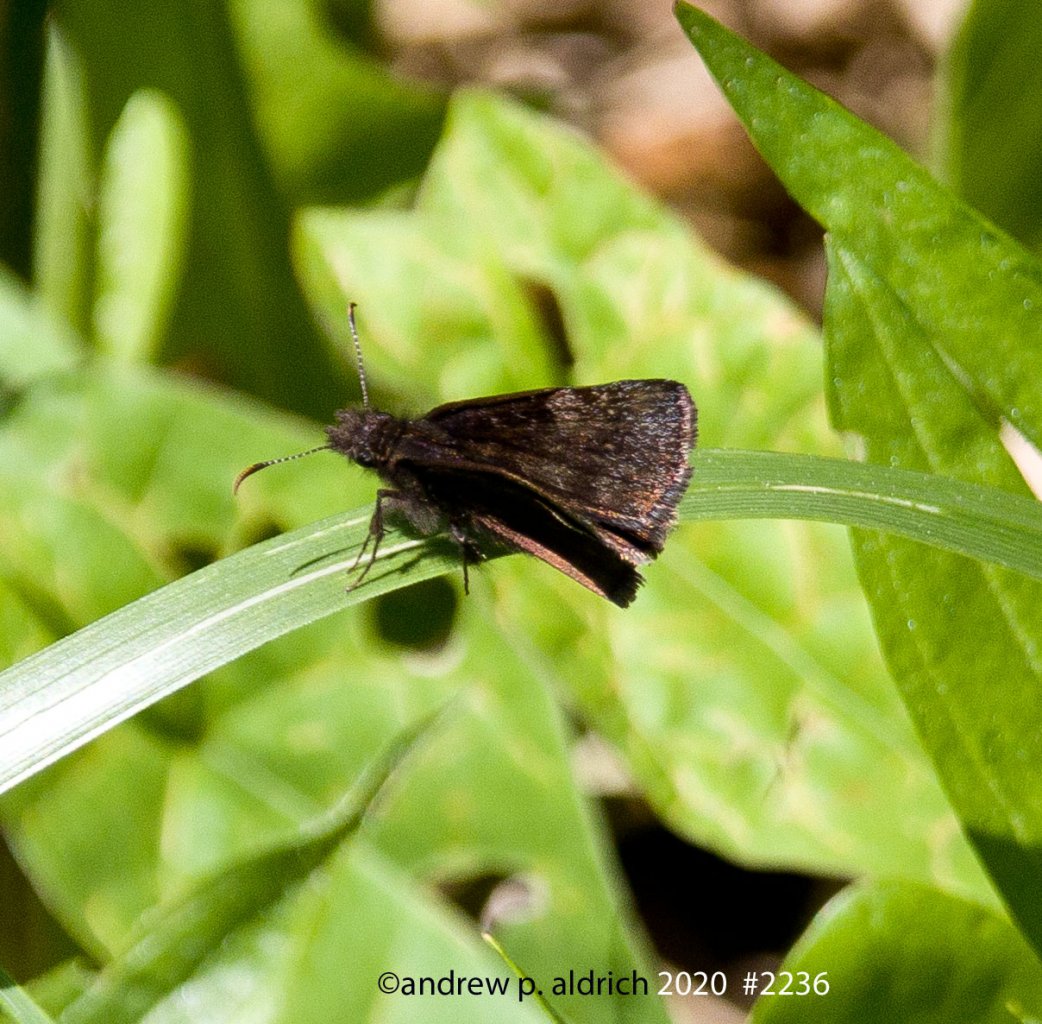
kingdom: Animalia
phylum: Arthropoda
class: Insecta
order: Lepidoptera
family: Hesperiidae
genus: Gesta
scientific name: Gesta
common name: Wild Indigo Duskywing
